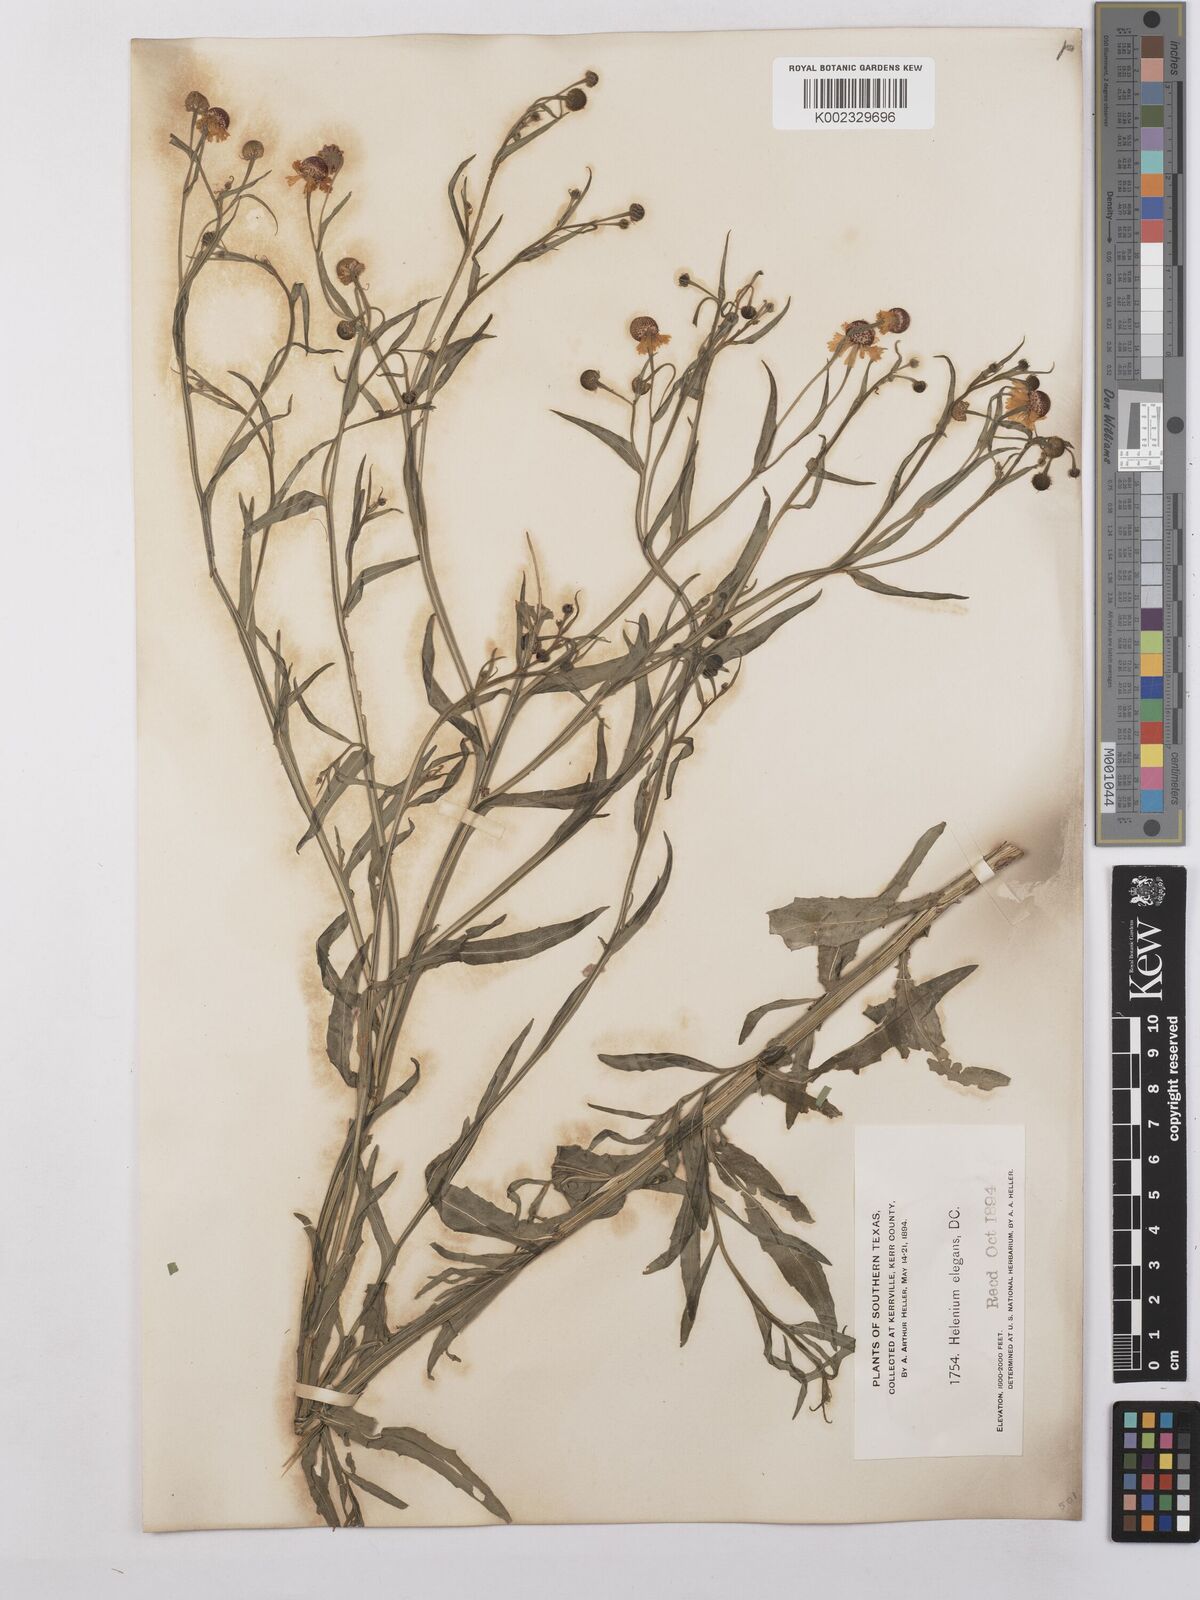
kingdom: Plantae
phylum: Tracheophyta
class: Magnoliopsida
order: Asterales
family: Asteraceae
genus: Helenium
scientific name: Helenium elegans
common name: Pretty sneezeweed
